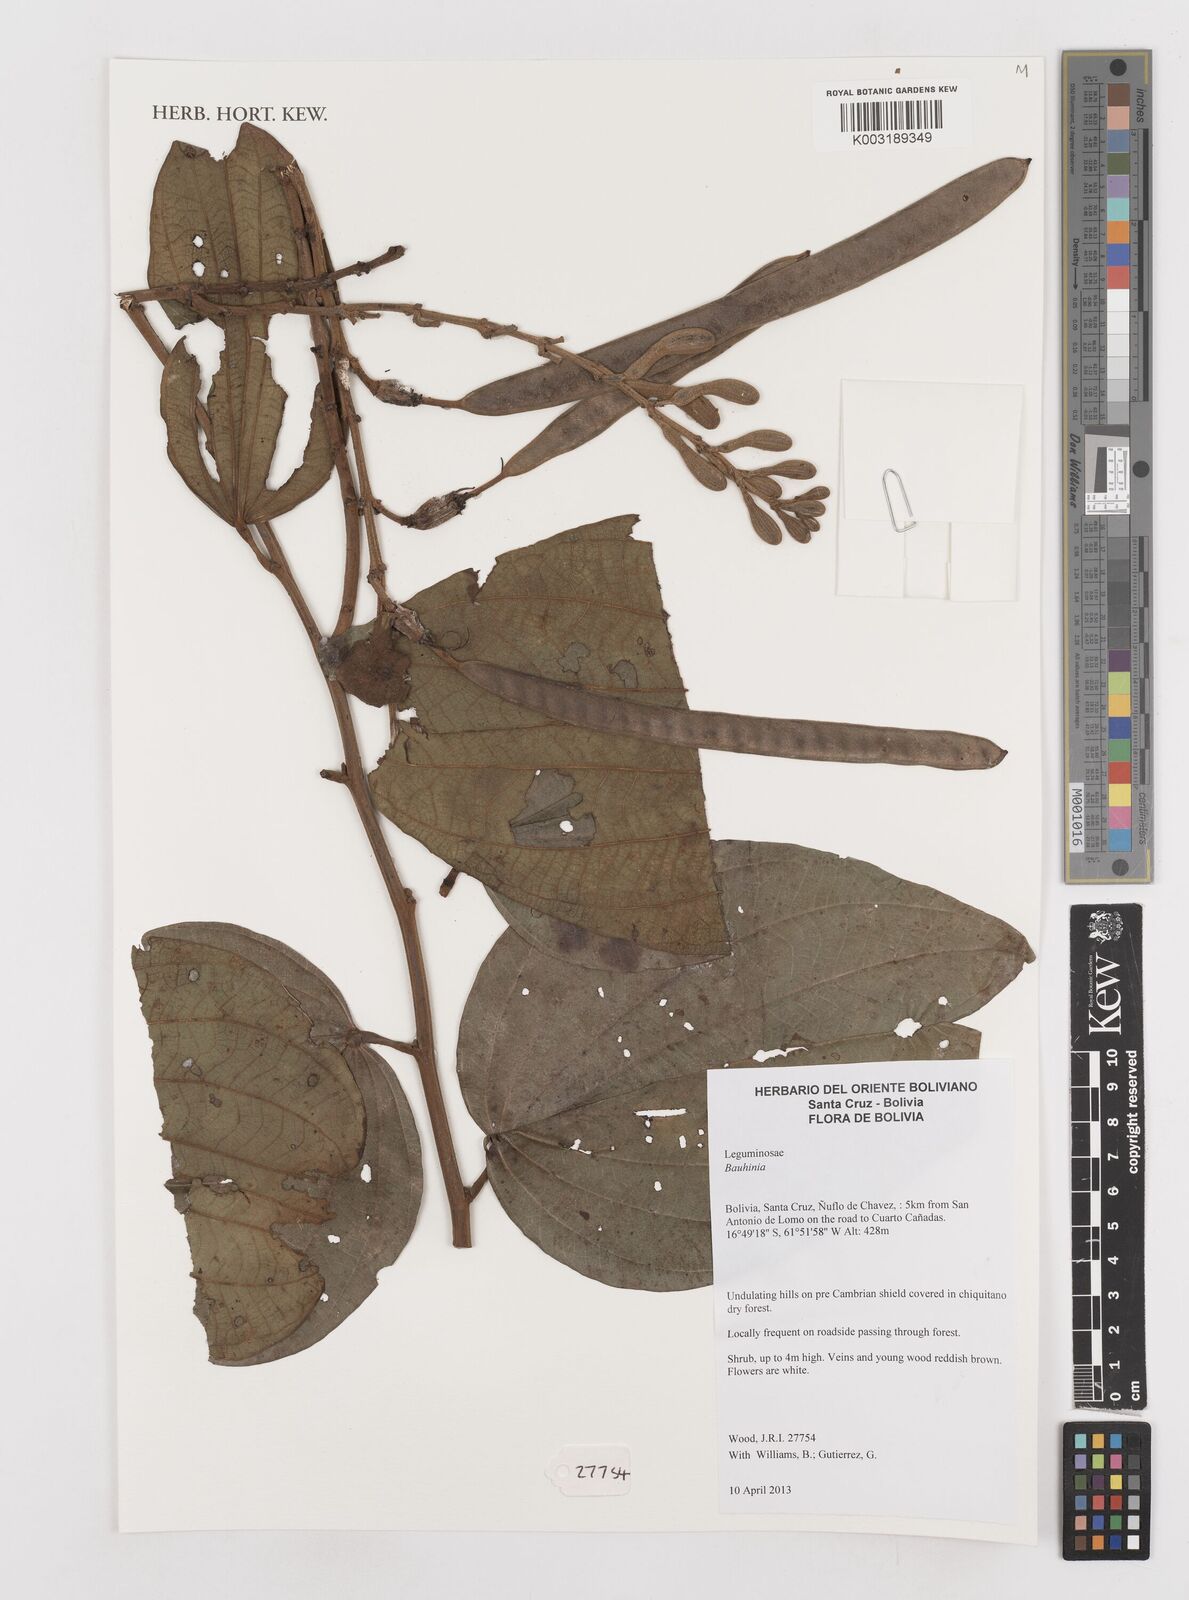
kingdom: Plantae
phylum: Tracheophyta
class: Magnoliopsida
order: Fabales
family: Fabaceae
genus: Bauhinia
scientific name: Bauhinia
